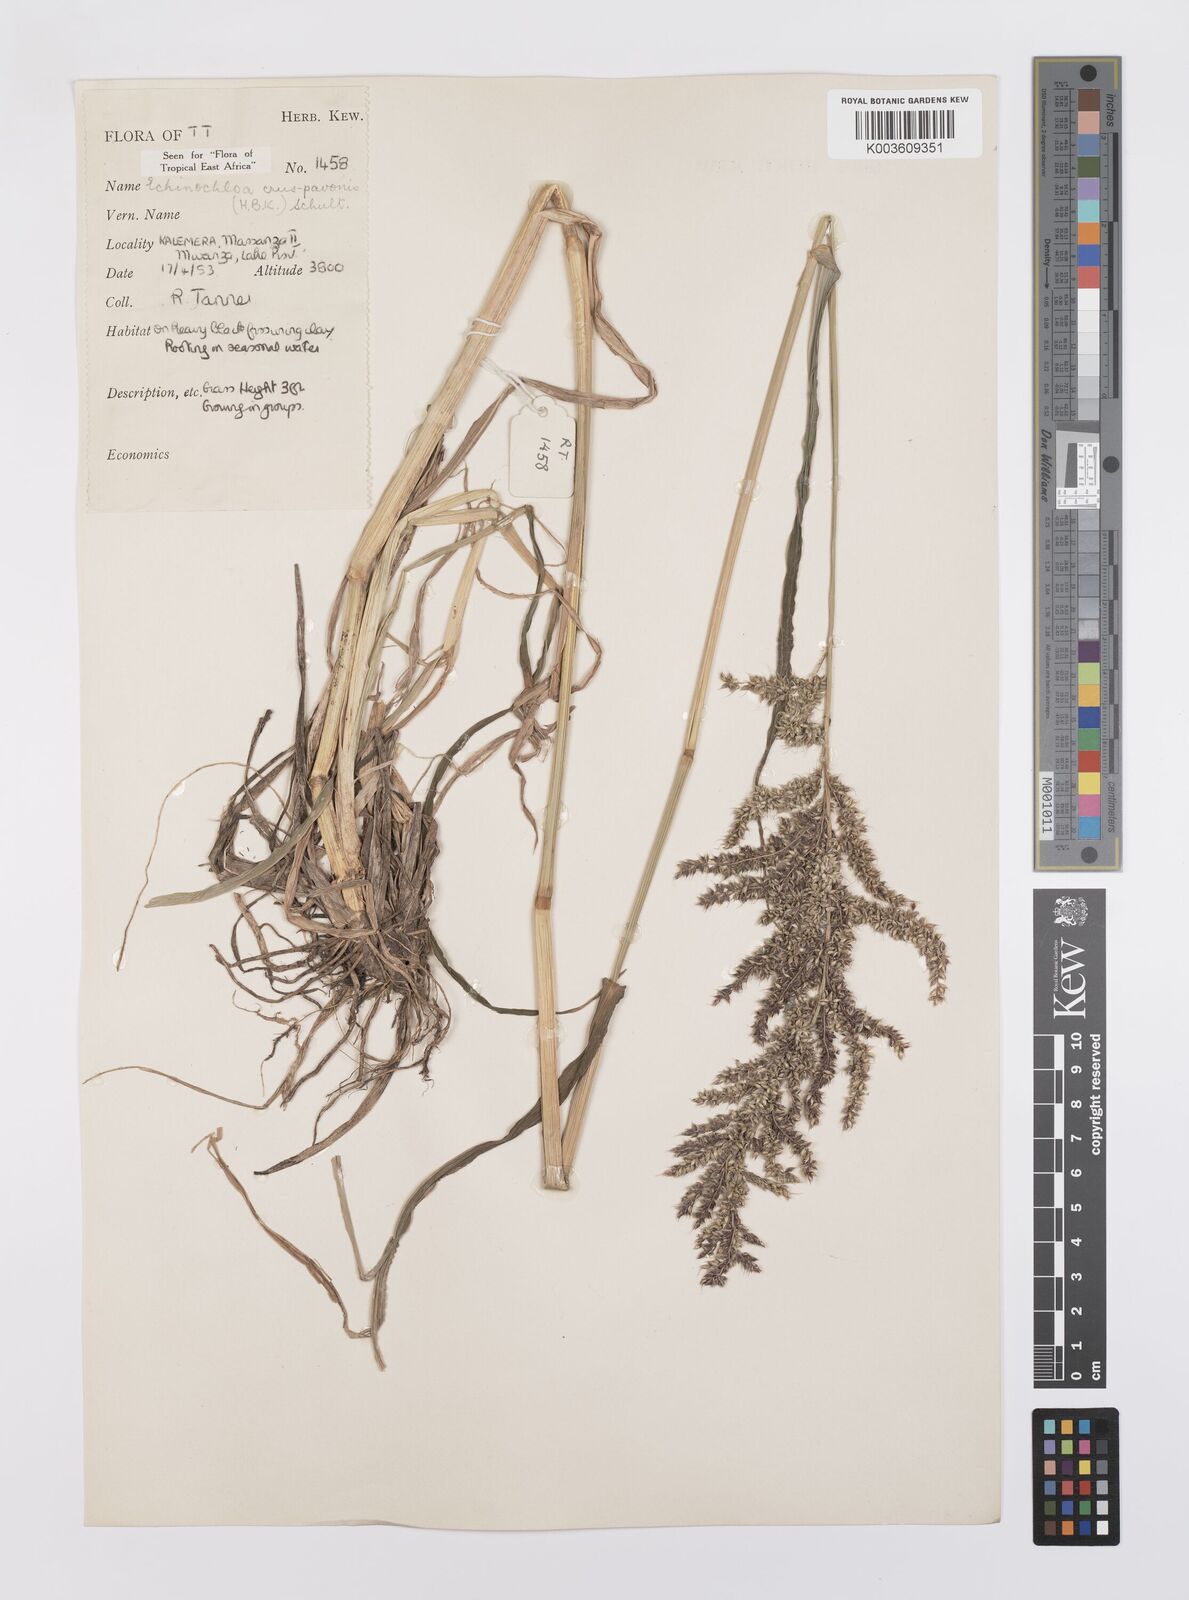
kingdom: Plantae
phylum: Tracheophyta
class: Liliopsida
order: Poales
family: Poaceae
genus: Echinochloa
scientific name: Echinochloa crus-pavonis
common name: Gulf cockspur grass
